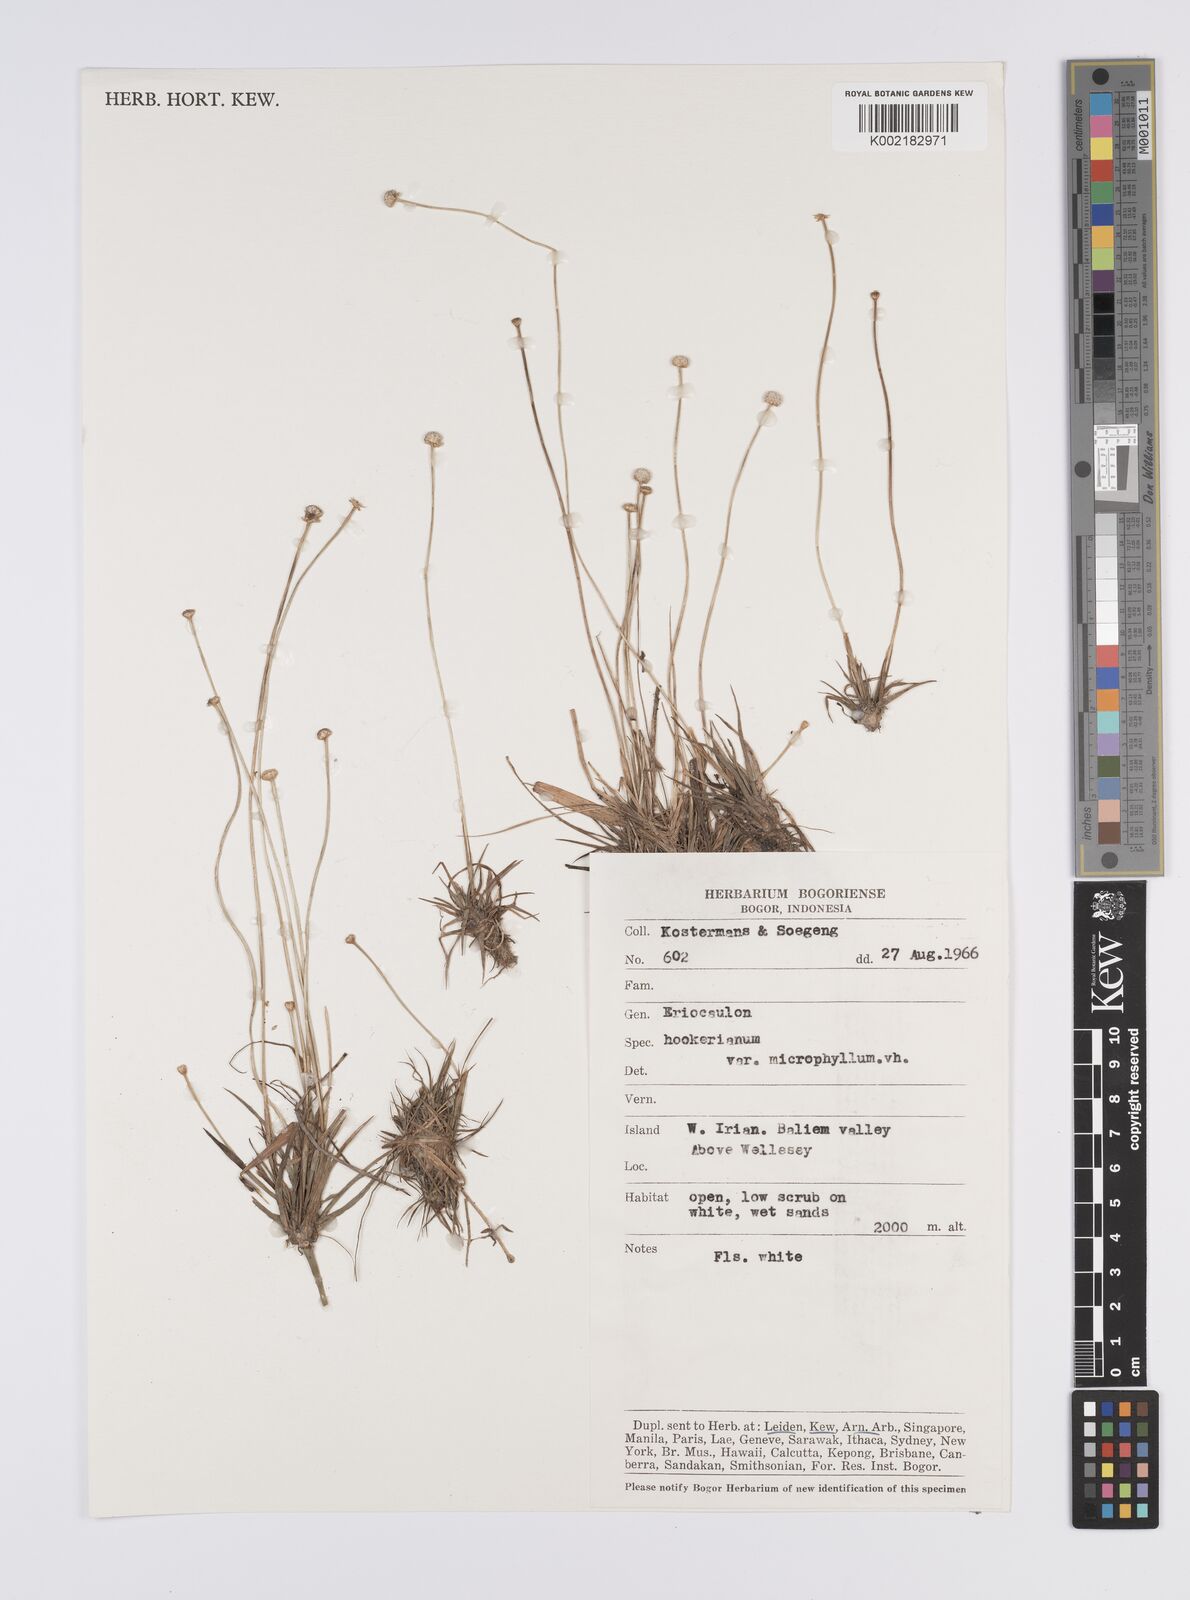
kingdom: Plantae
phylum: Tracheophyta
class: Liliopsida
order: Poales
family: Eriocaulaceae
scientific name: Eriocaulaceae
